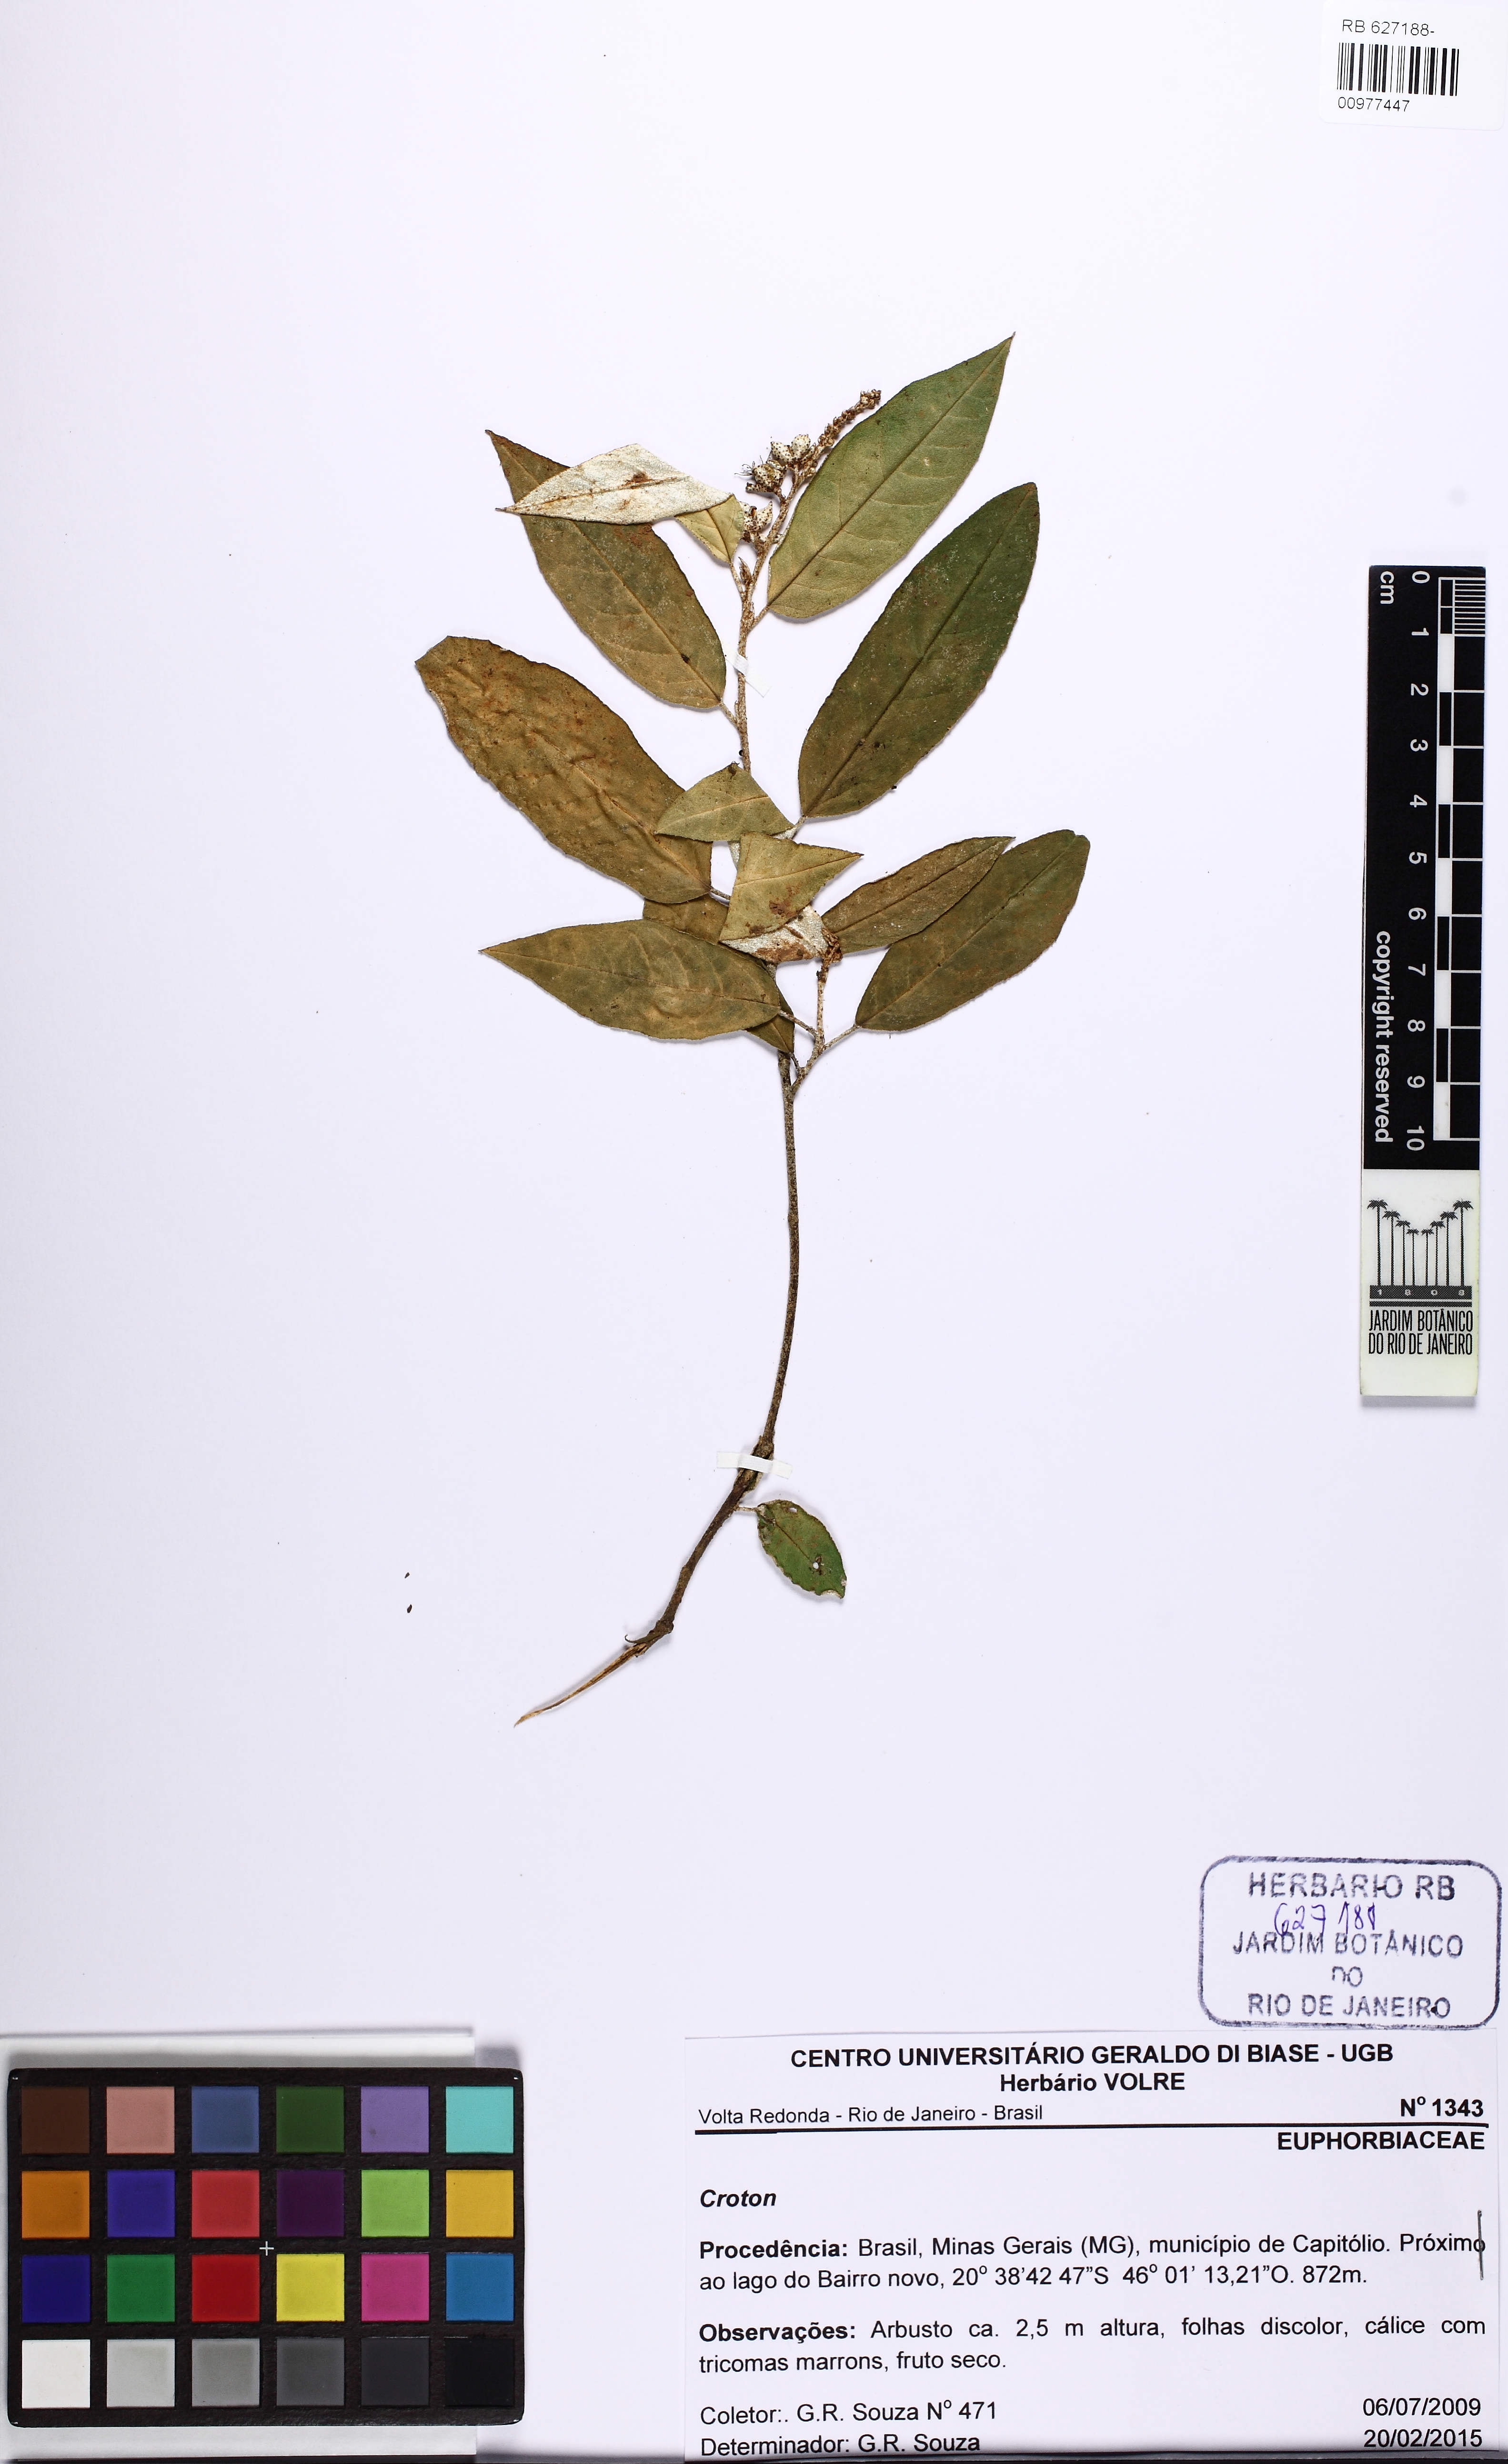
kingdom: Plantae
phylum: Tracheophyta
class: Magnoliopsida
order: Malpighiales
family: Euphorbiaceae
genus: Croton
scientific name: Croton
